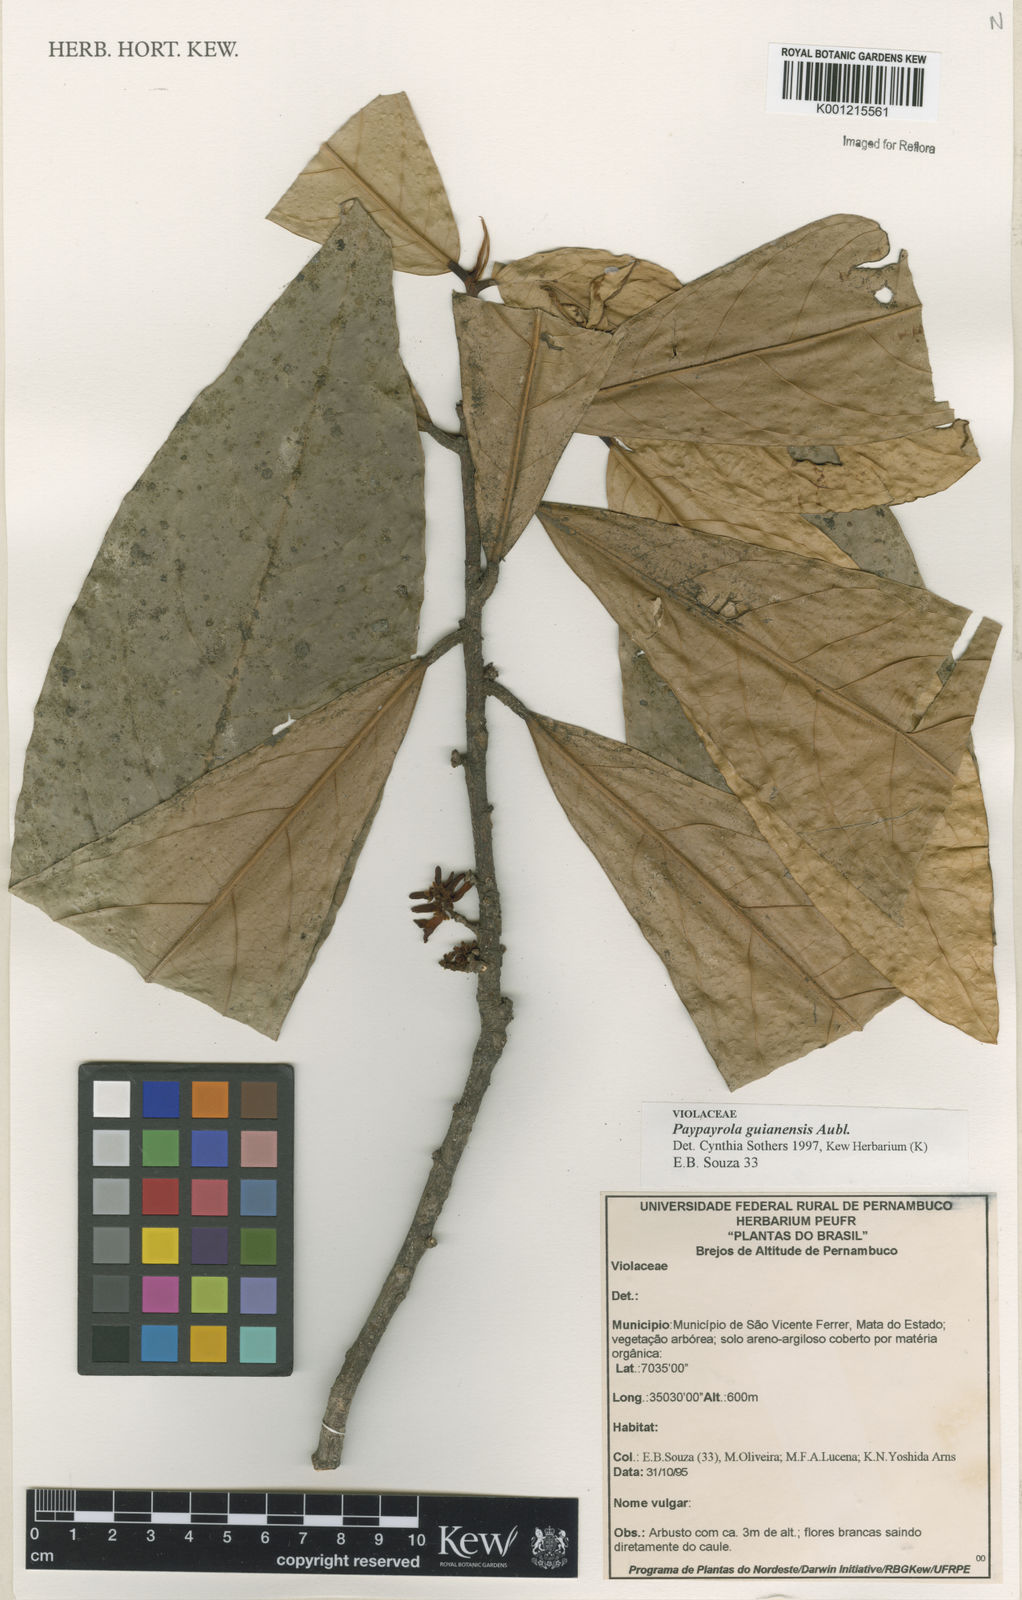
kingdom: Plantae
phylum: Tracheophyta
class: Magnoliopsida
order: Malpighiales
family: Violaceae
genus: Paypayrola
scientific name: Paypayrola guianensis
